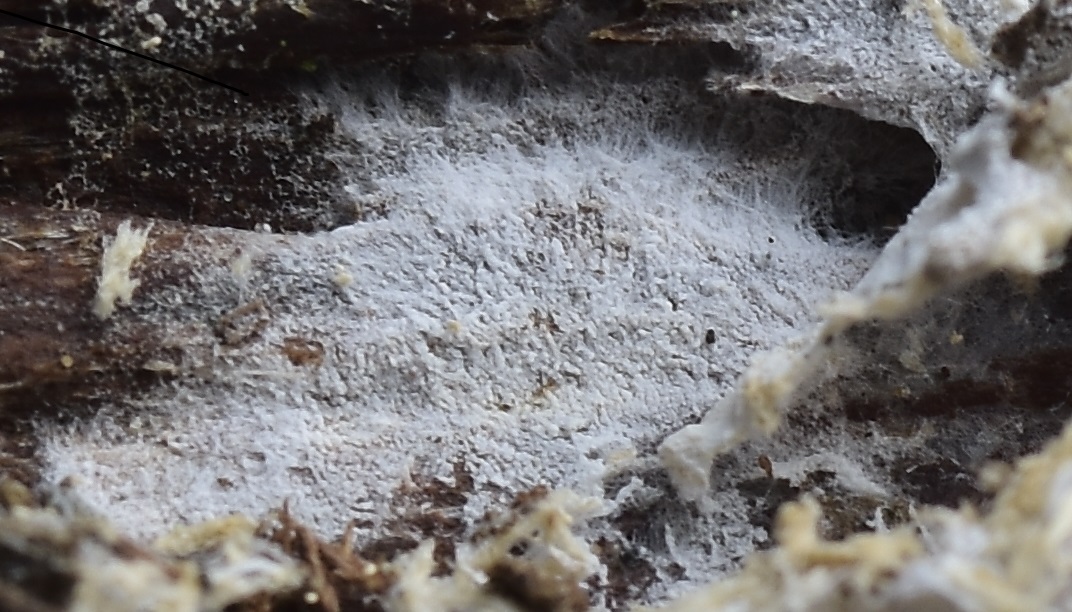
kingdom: Fungi
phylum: Basidiomycota
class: Agaricomycetes
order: Trechisporales
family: Sistotremataceae
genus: Trechispora
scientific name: Trechispora cohaerens
